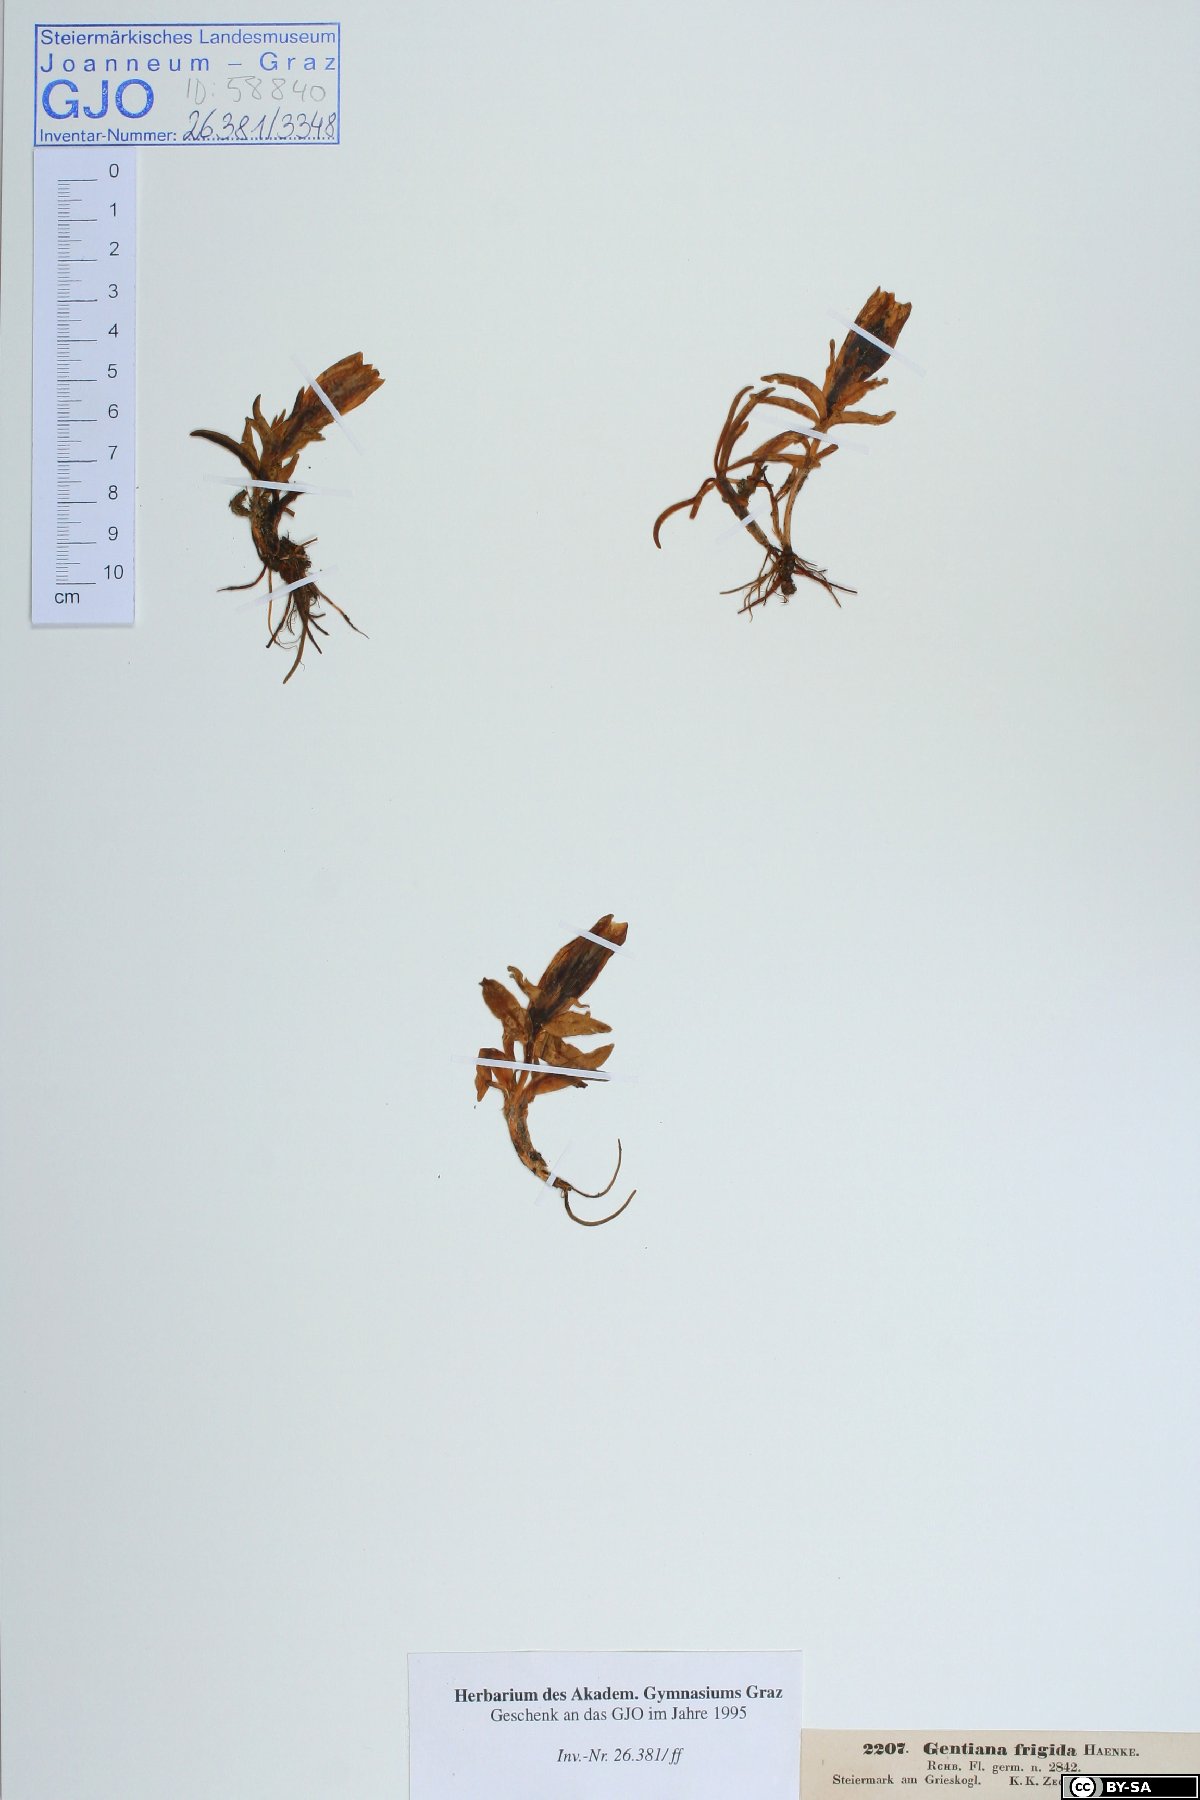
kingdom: Plantae
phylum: Tracheophyta
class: Magnoliopsida
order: Gentianales
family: Gentianaceae
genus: Gentiana
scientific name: Gentiana frigida
